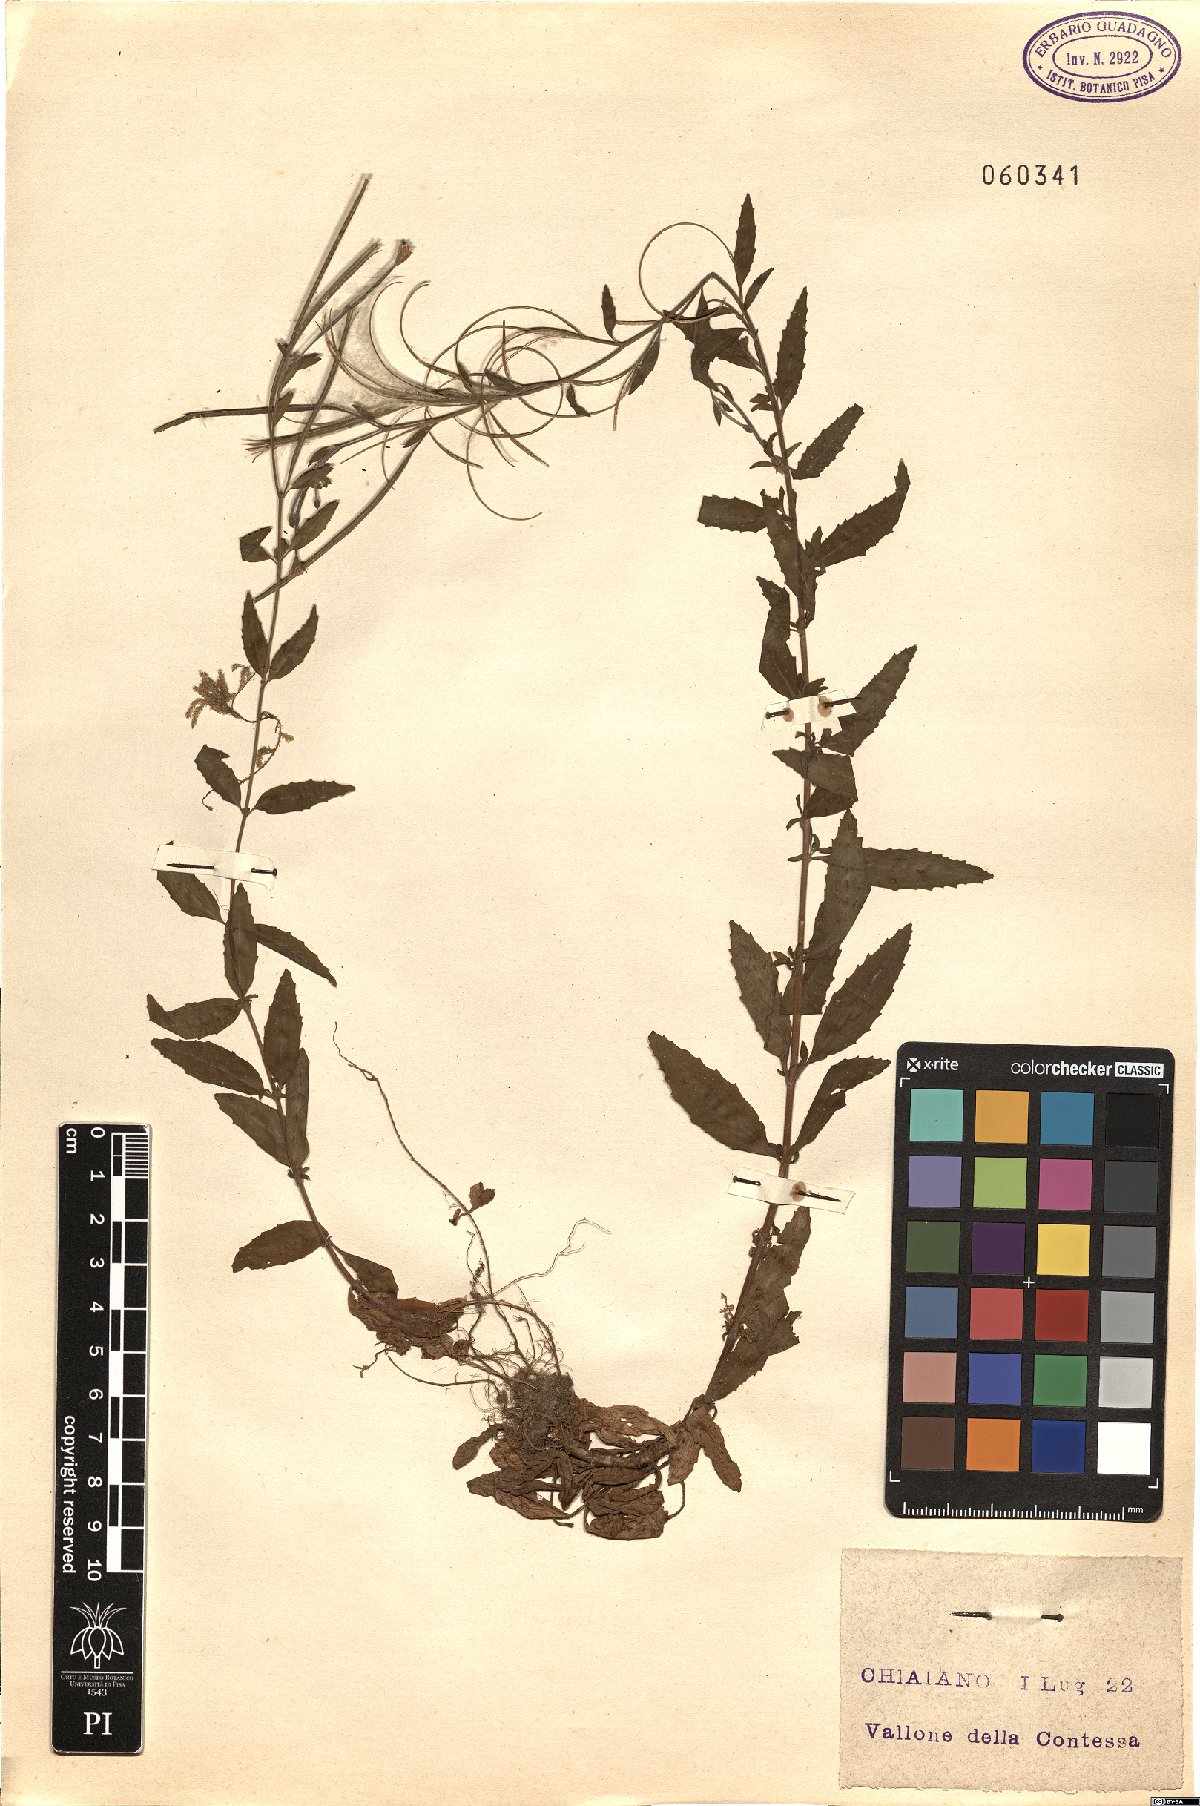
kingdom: Plantae
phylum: Tracheophyta
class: Magnoliopsida
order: Myrtales
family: Onagraceae
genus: Epilobium
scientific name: Epilobium lanceolatum
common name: Spear-leaved willowherb
